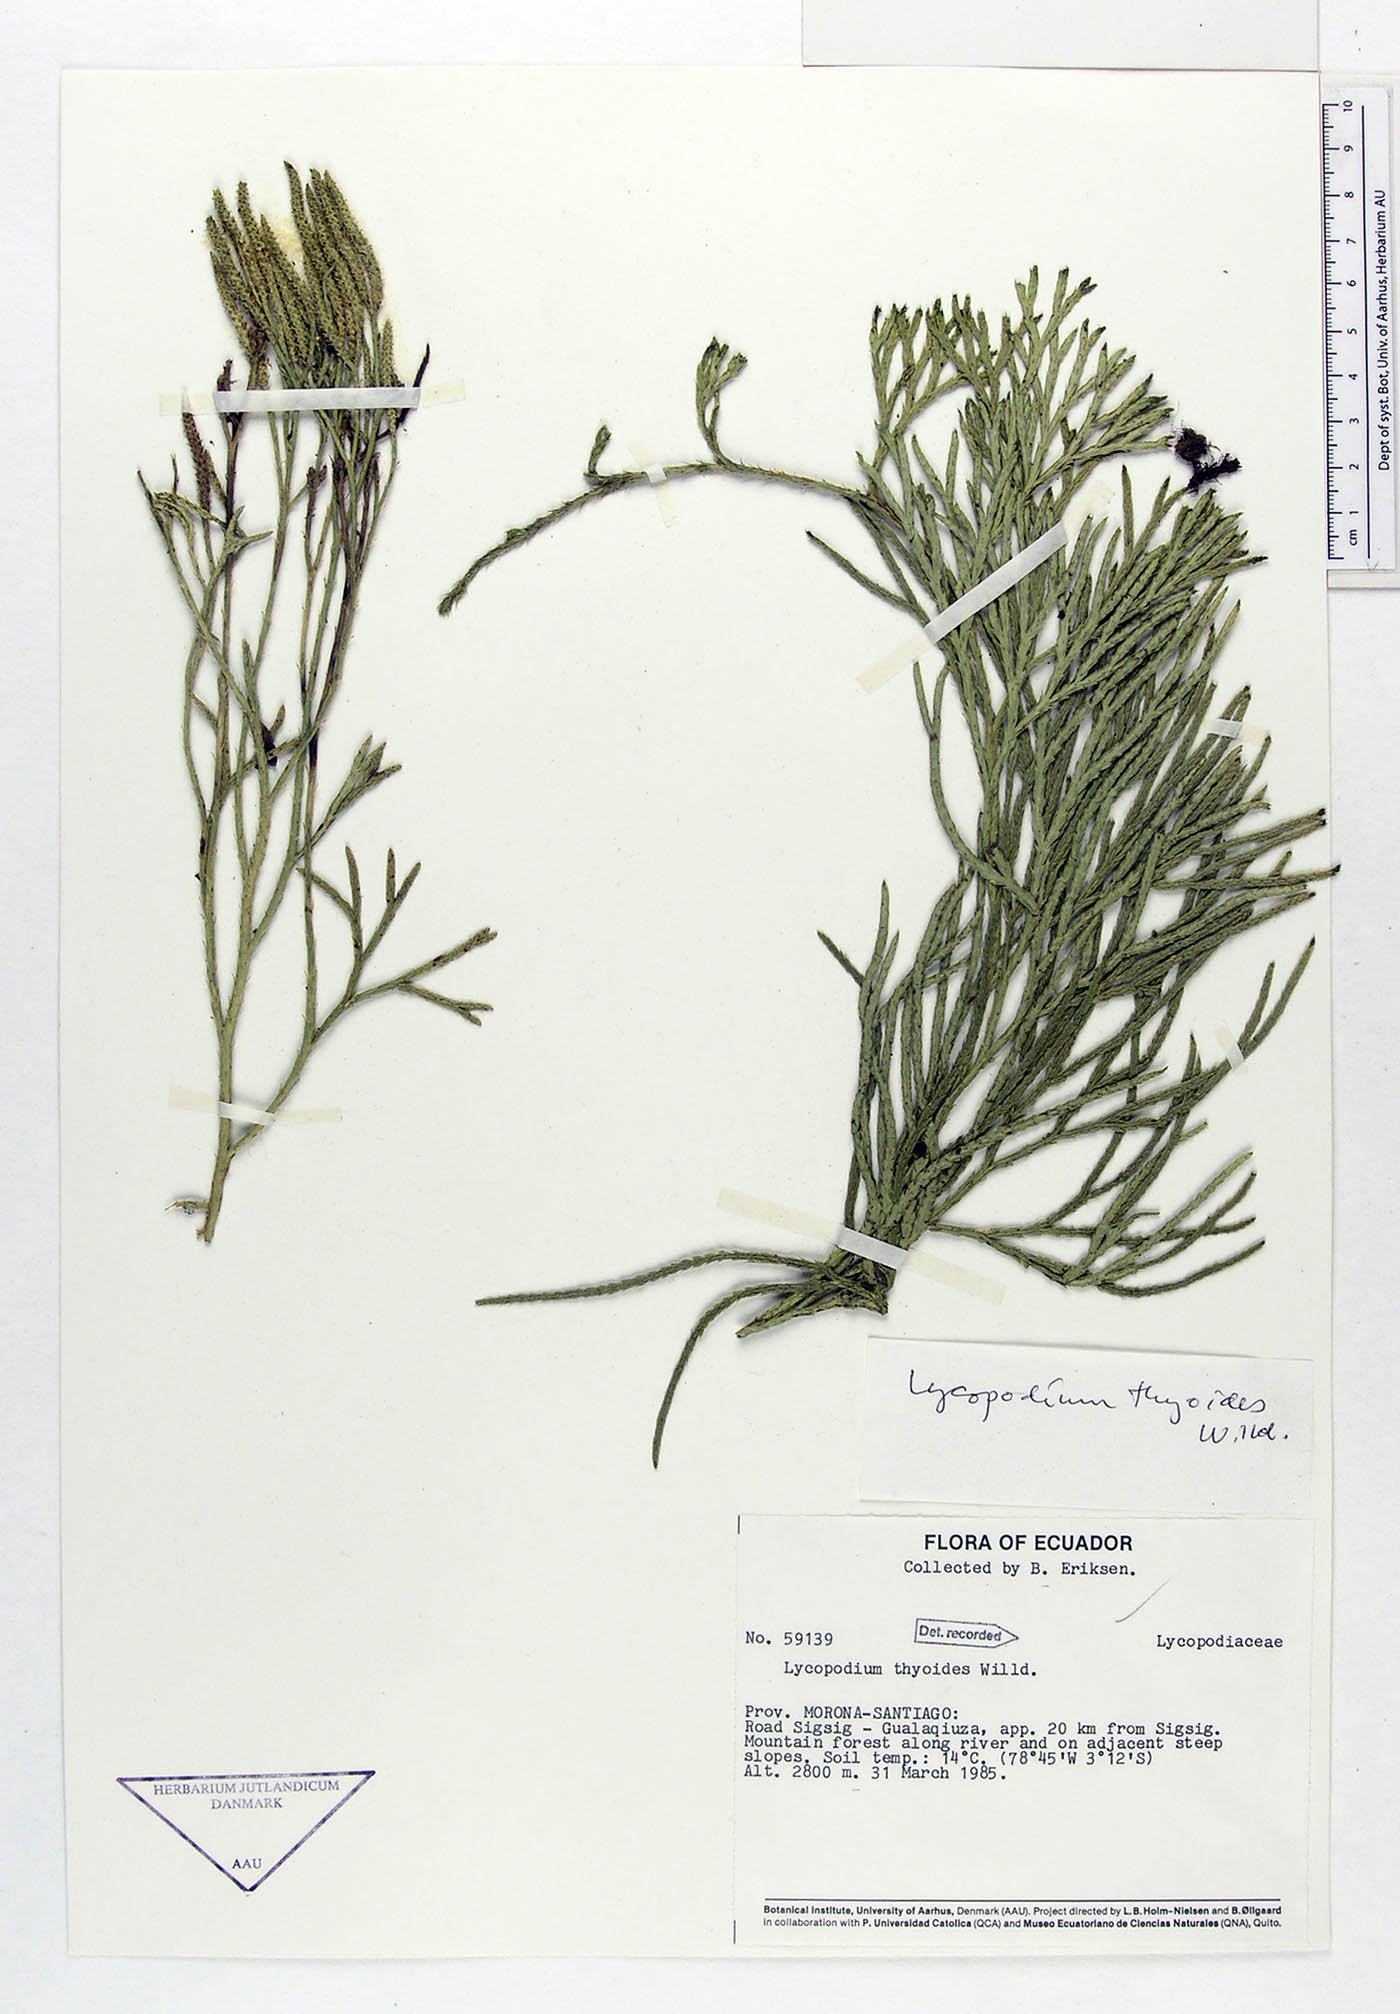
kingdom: Plantae
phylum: Tracheophyta
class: Lycopodiopsida
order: Lycopodiales
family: Lycopodiaceae
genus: Diphasiastrum
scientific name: Diphasiastrum thyoides
